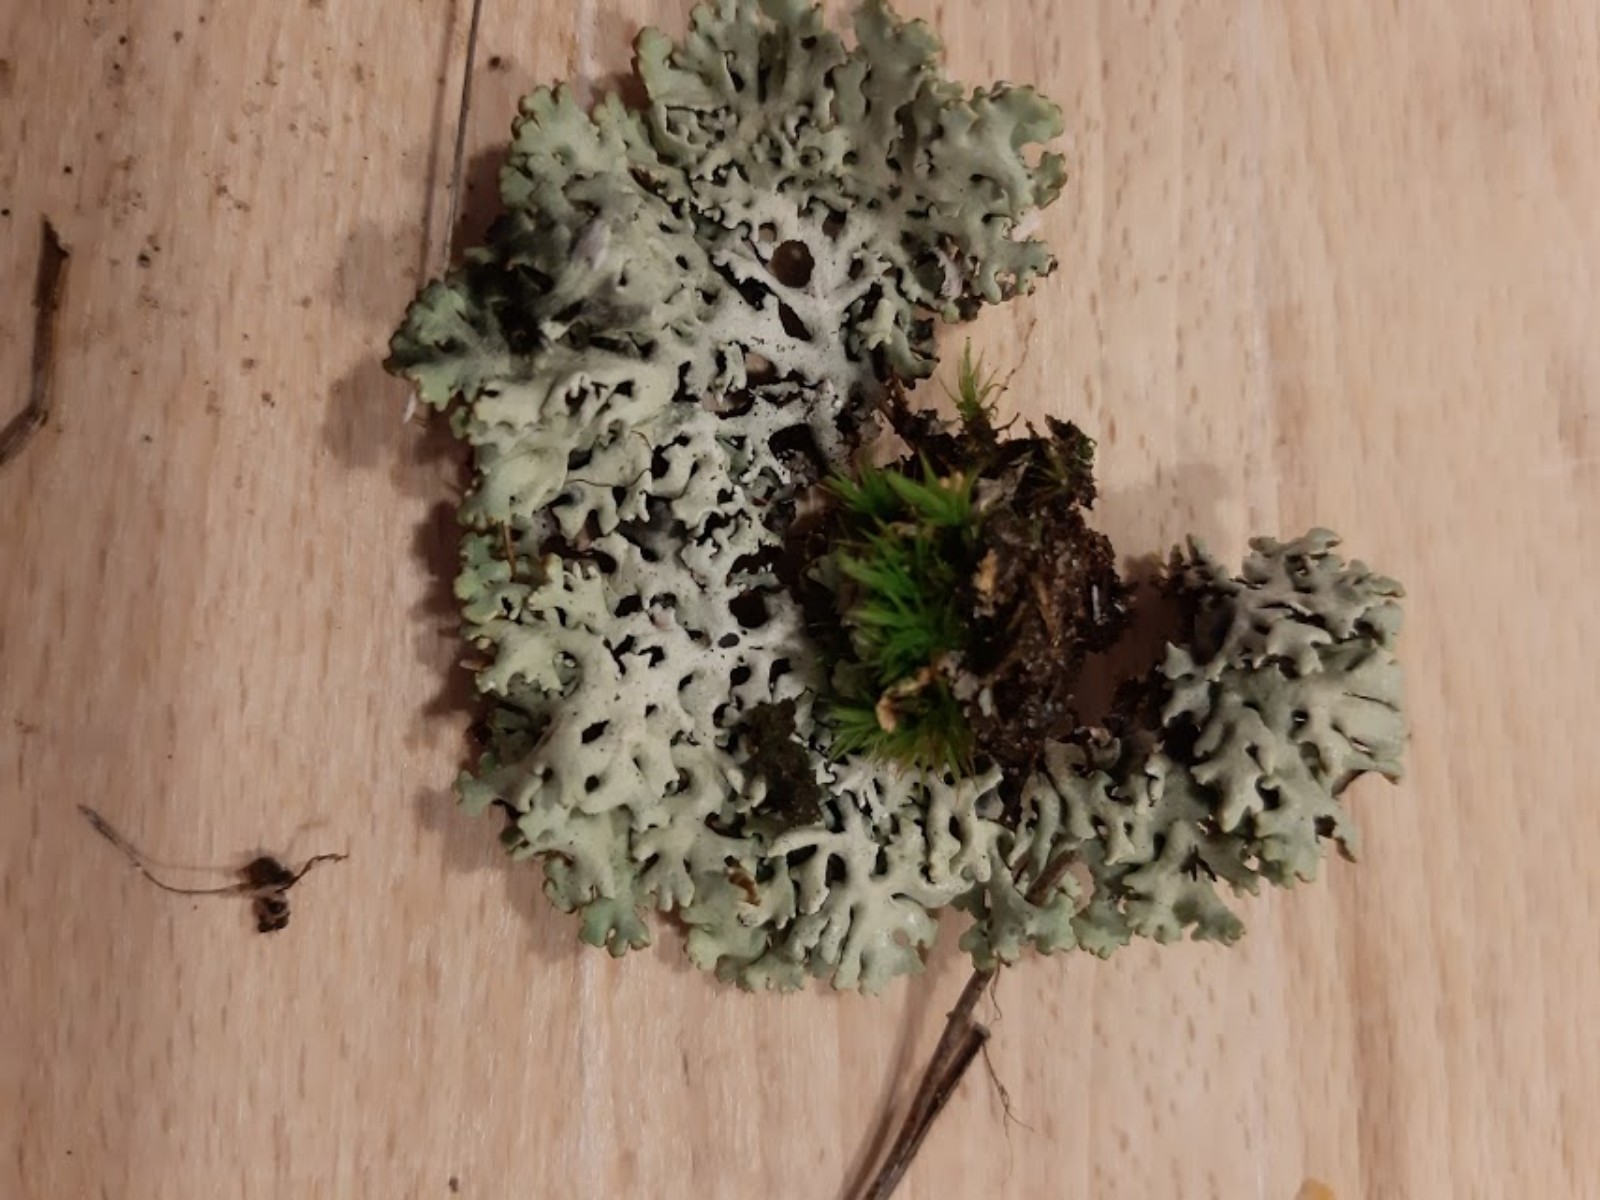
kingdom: Fungi
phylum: Ascomycota
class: Lecanoromycetes
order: Lecanorales
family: Parmeliaceae
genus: Hypogymnia
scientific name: Hypogymnia physodes
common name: almindelig kvistlav
